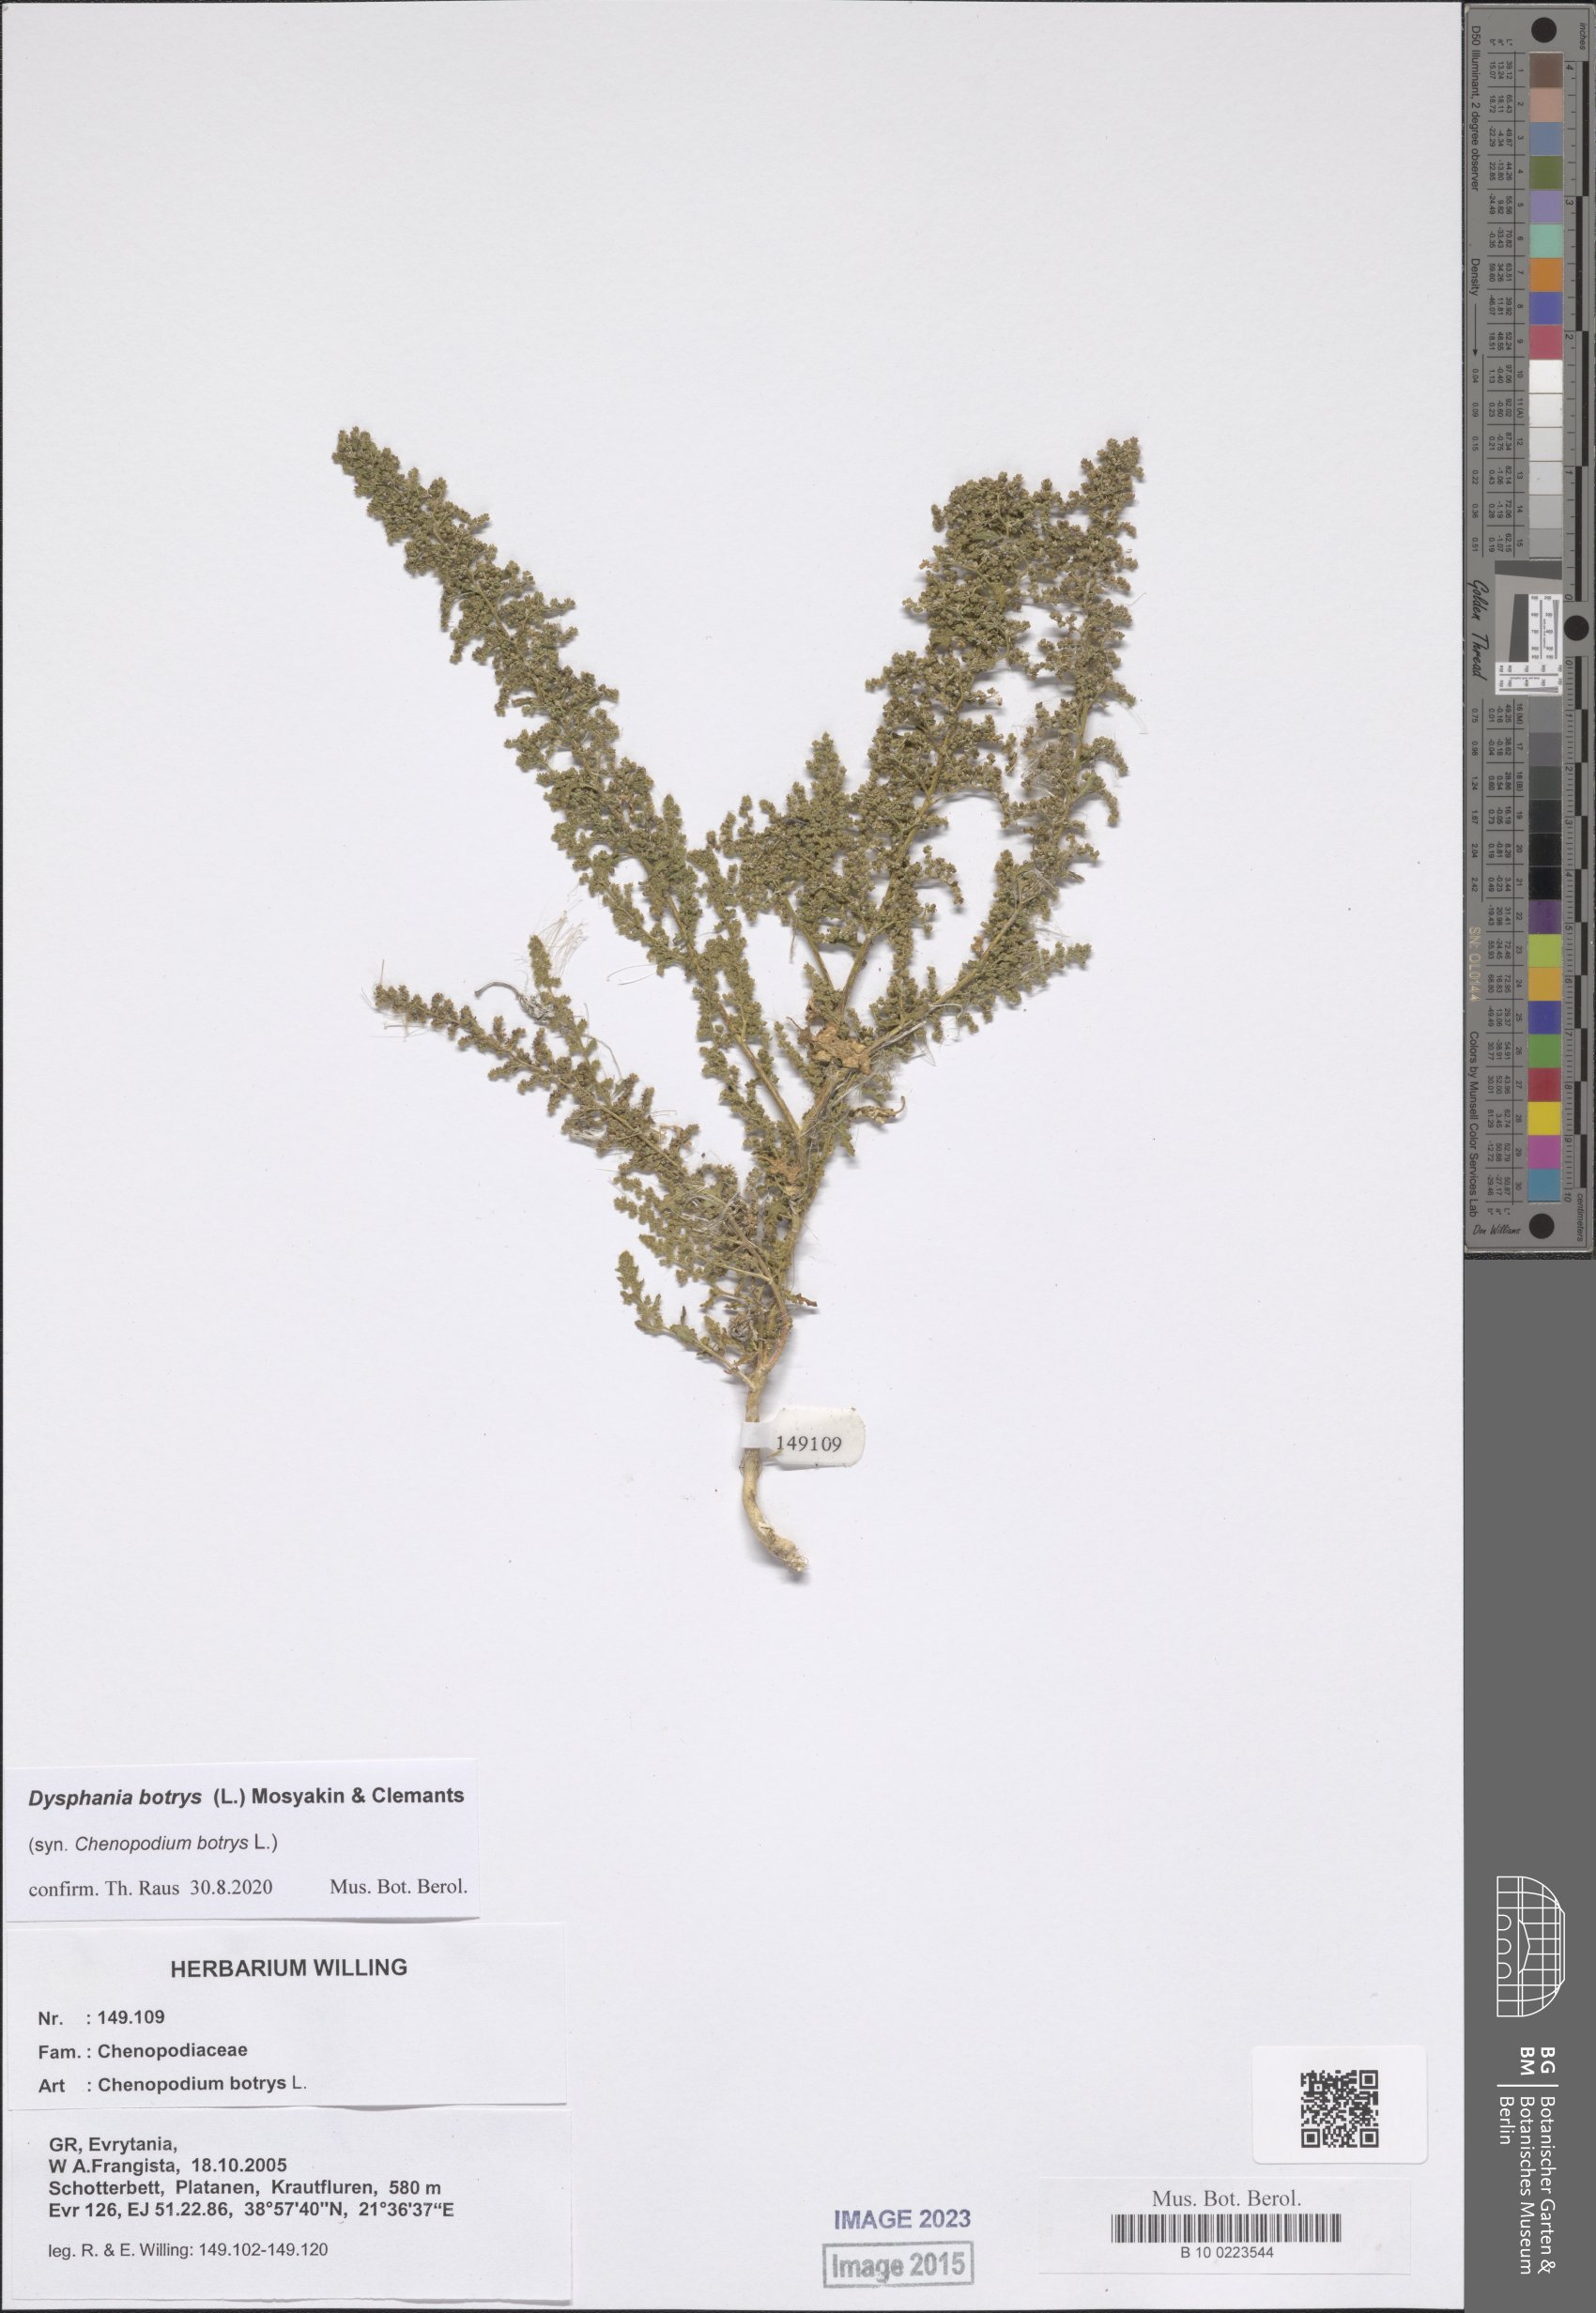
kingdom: Plantae
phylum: Tracheophyta
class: Magnoliopsida
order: Caryophyllales
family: Amaranthaceae
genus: Dysphania
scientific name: Dysphania botrys
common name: Feather-geranium
